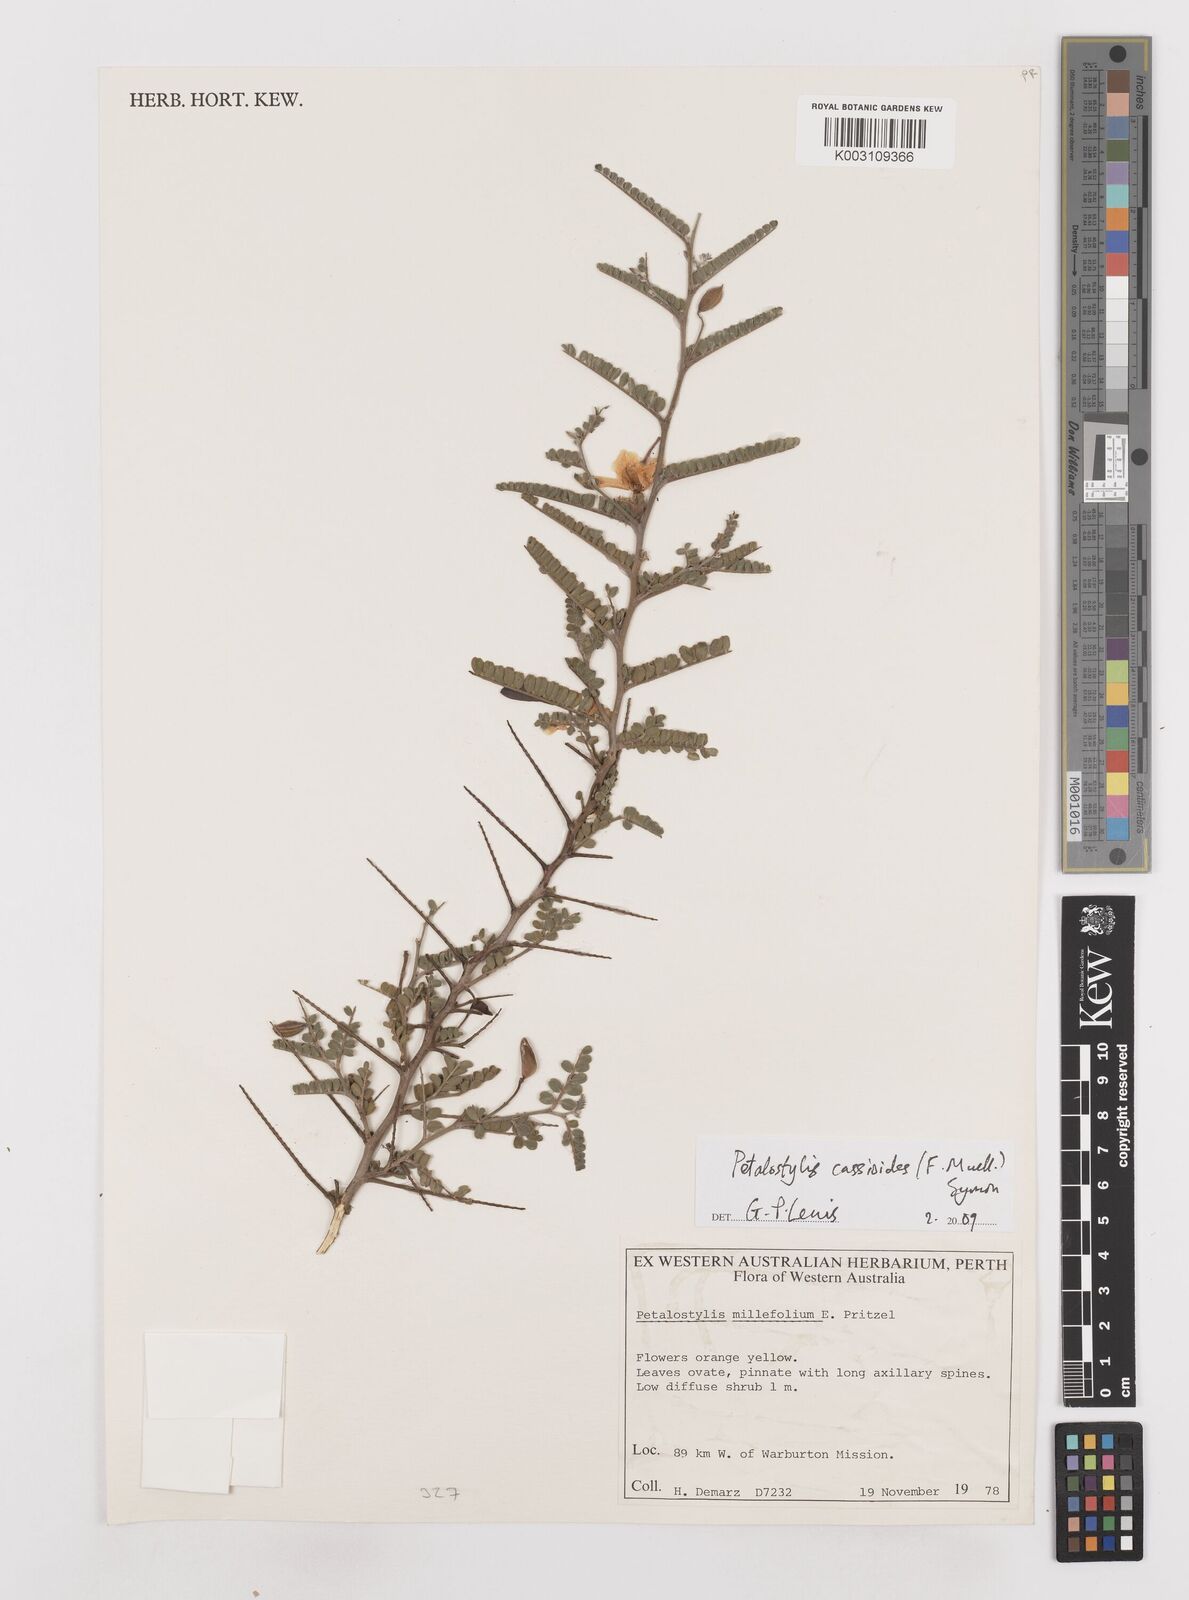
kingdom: Plantae
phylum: Tracheophyta
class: Magnoliopsida
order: Fabales
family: Fabaceae
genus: Petalostylis
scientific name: Petalostylis cassioides
